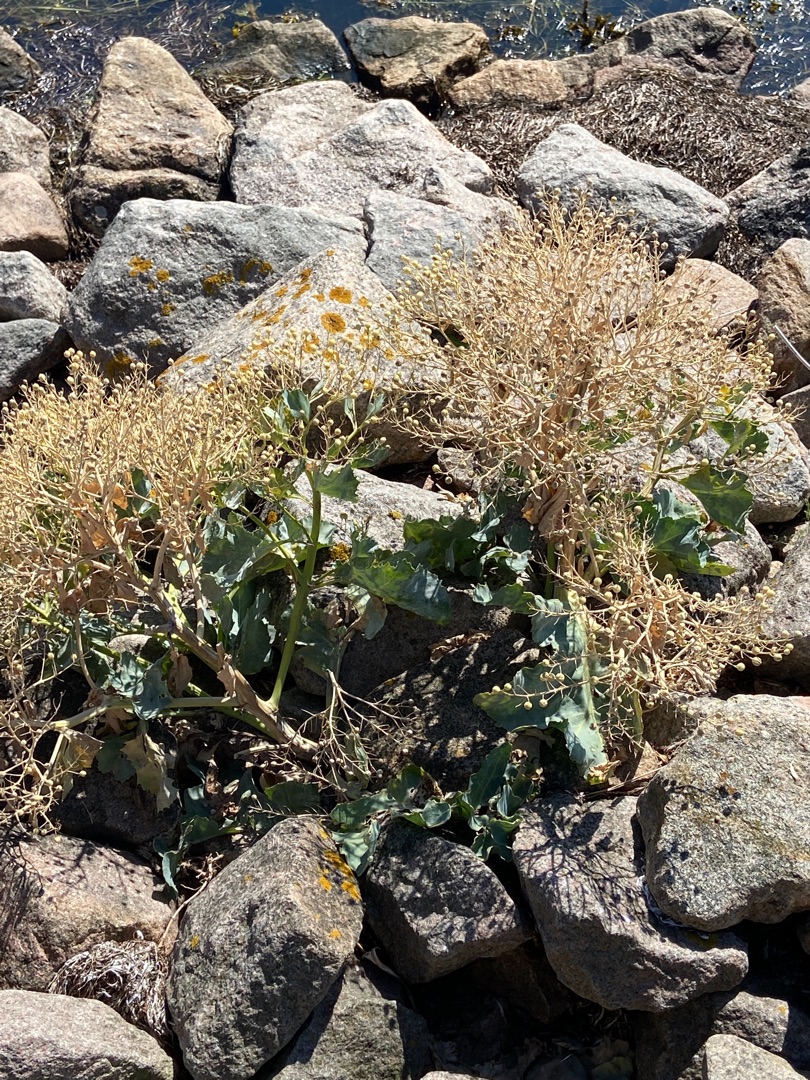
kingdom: Plantae
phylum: Tracheophyta
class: Magnoliopsida
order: Brassicales
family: Brassicaceae
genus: Crambe
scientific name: Crambe maritima
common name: Strandkål
